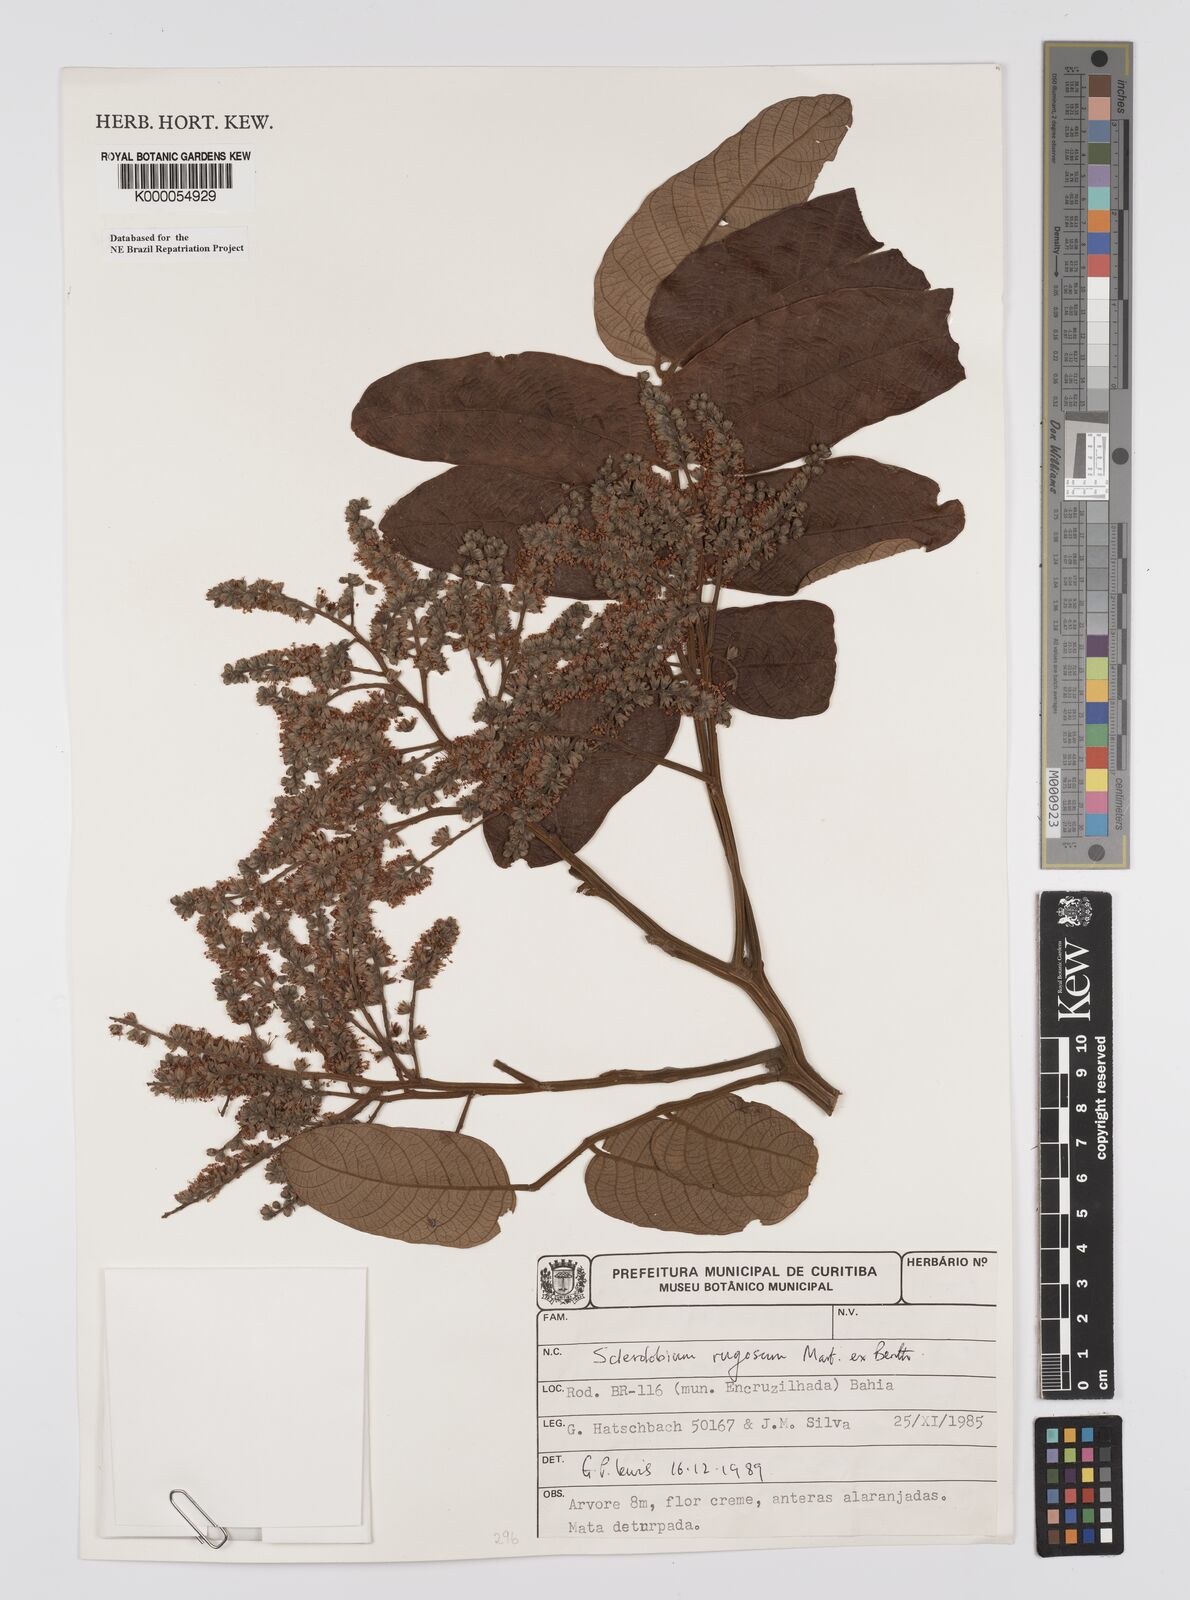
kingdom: Plantae
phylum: Tracheophyta
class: Magnoliopsida
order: Fabales
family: Fabaceae
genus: Tachigali
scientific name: Tachigali rugosa
